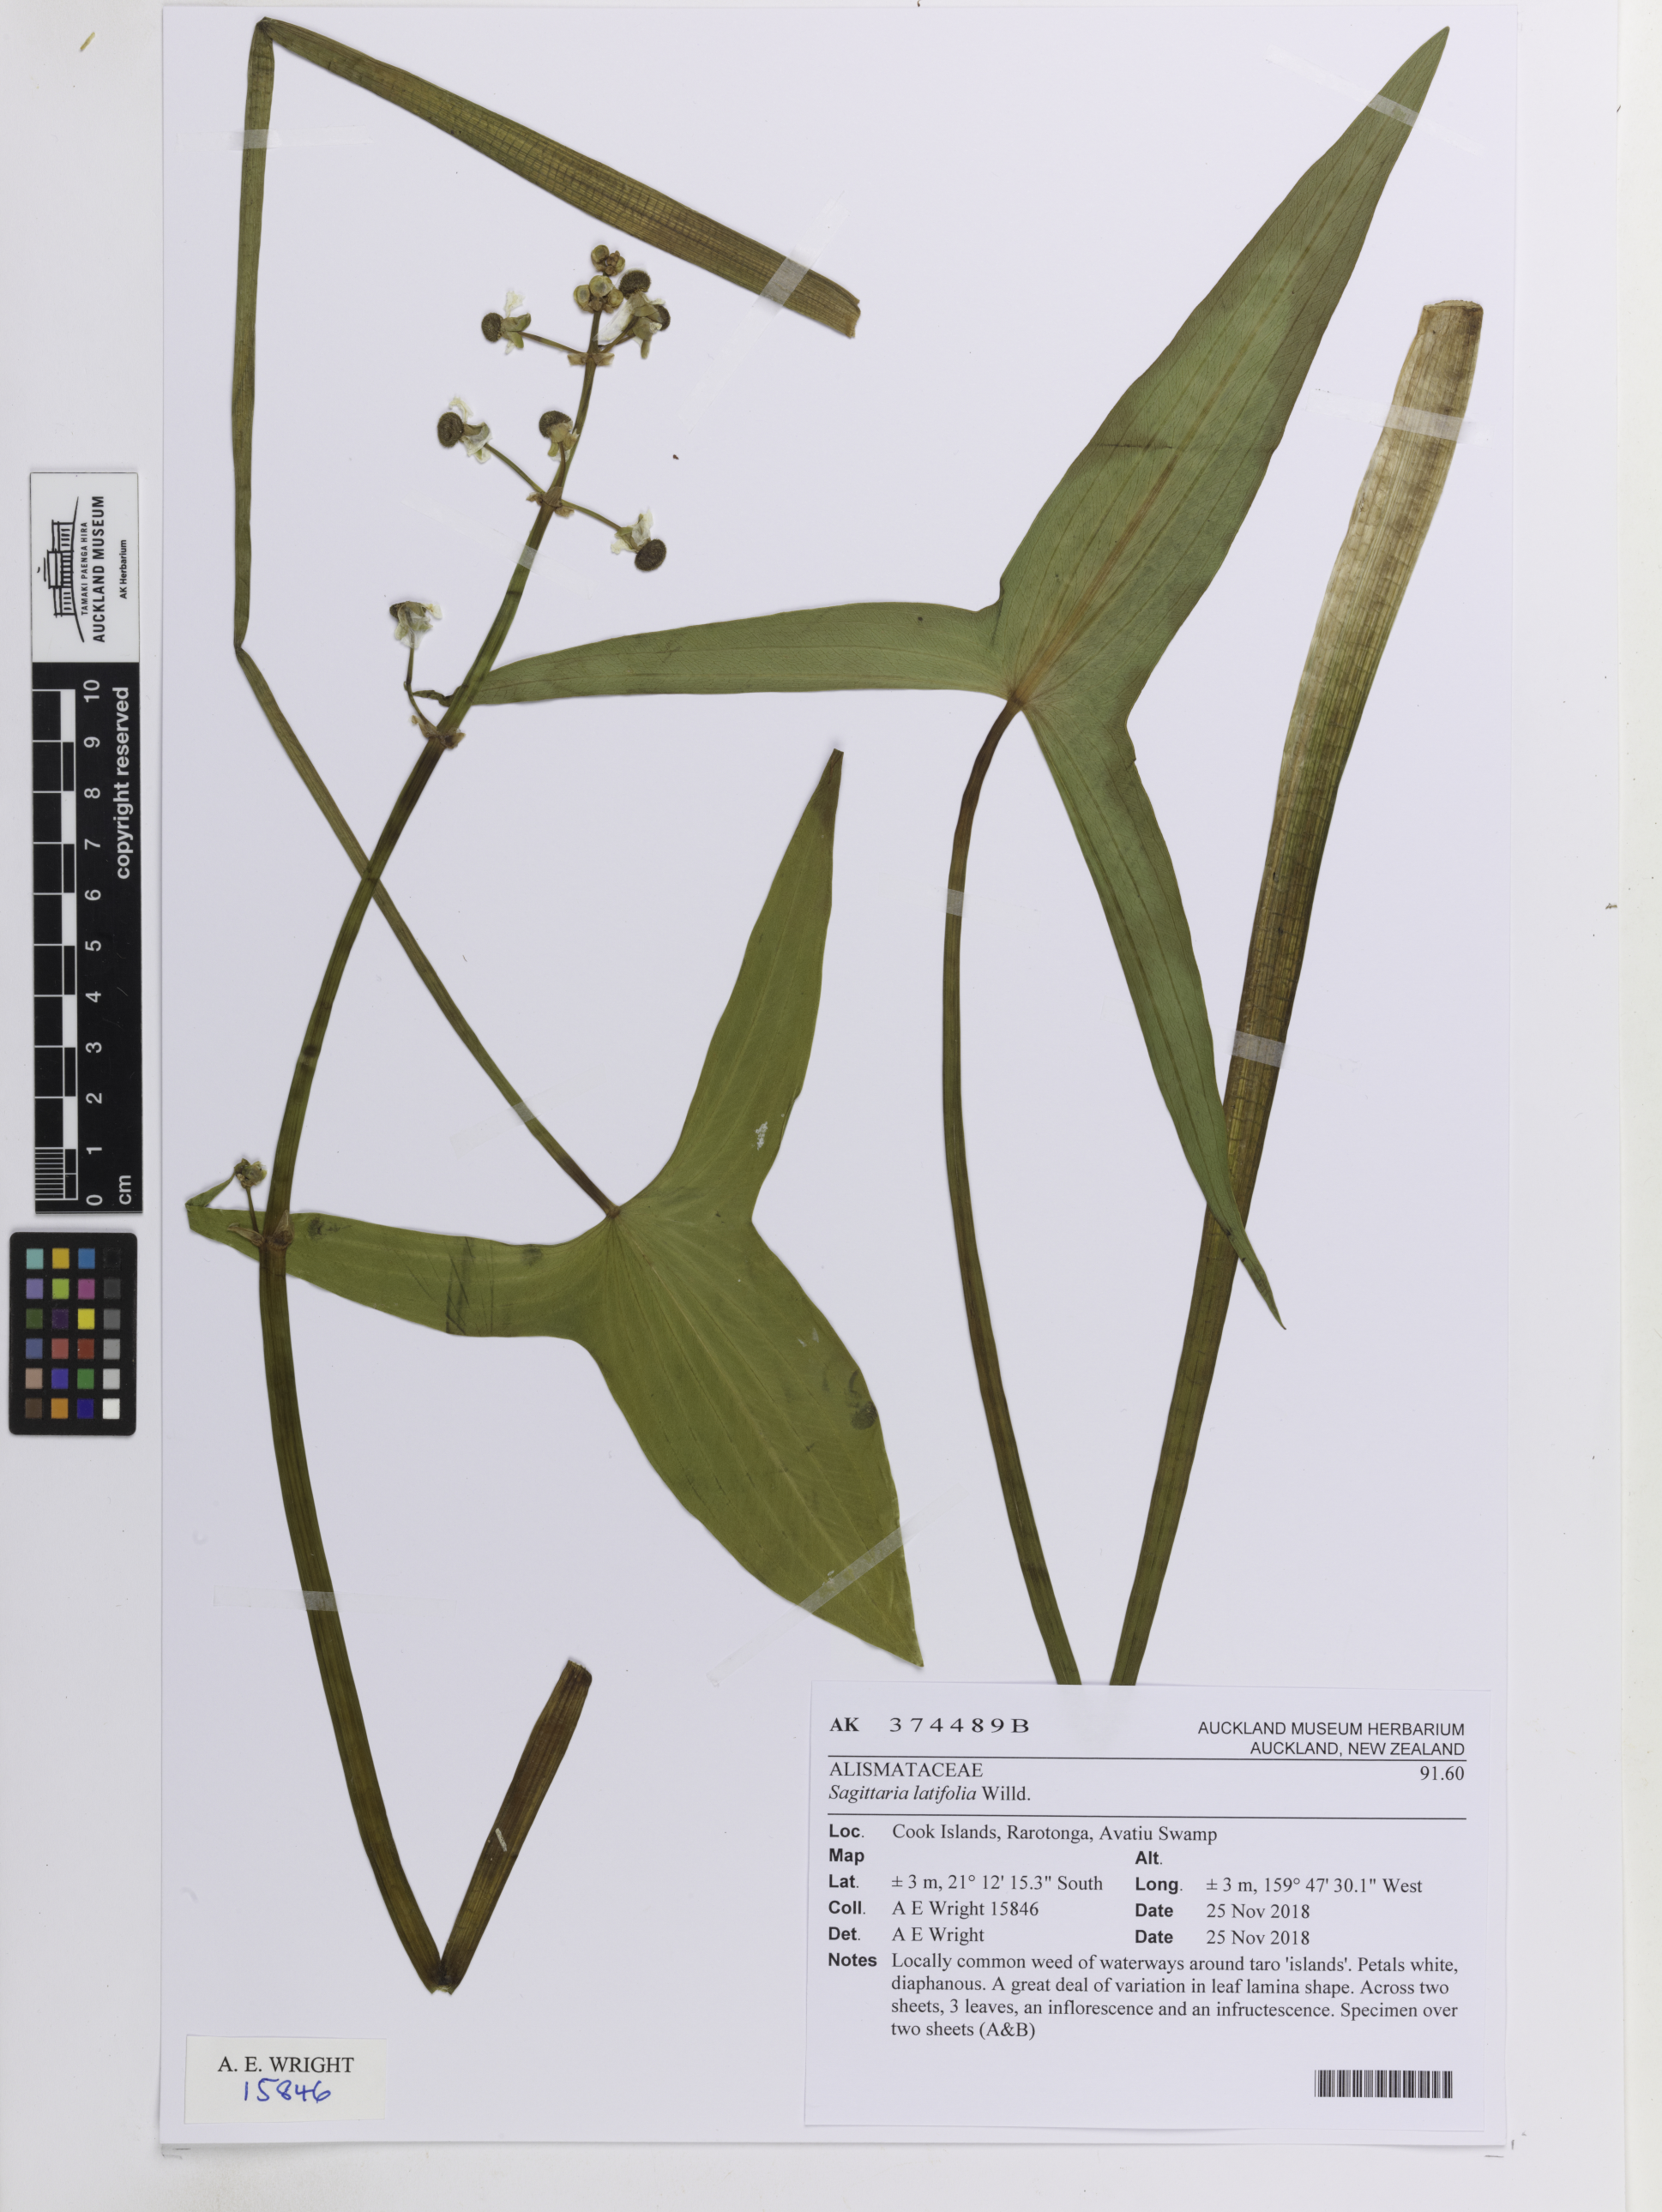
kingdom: Plantae
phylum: Tracheophyta
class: Liliopsida
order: Alismatales
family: Alismataceae
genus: Sagittaria
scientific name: Sagittaria latifolia
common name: Duck-potato
